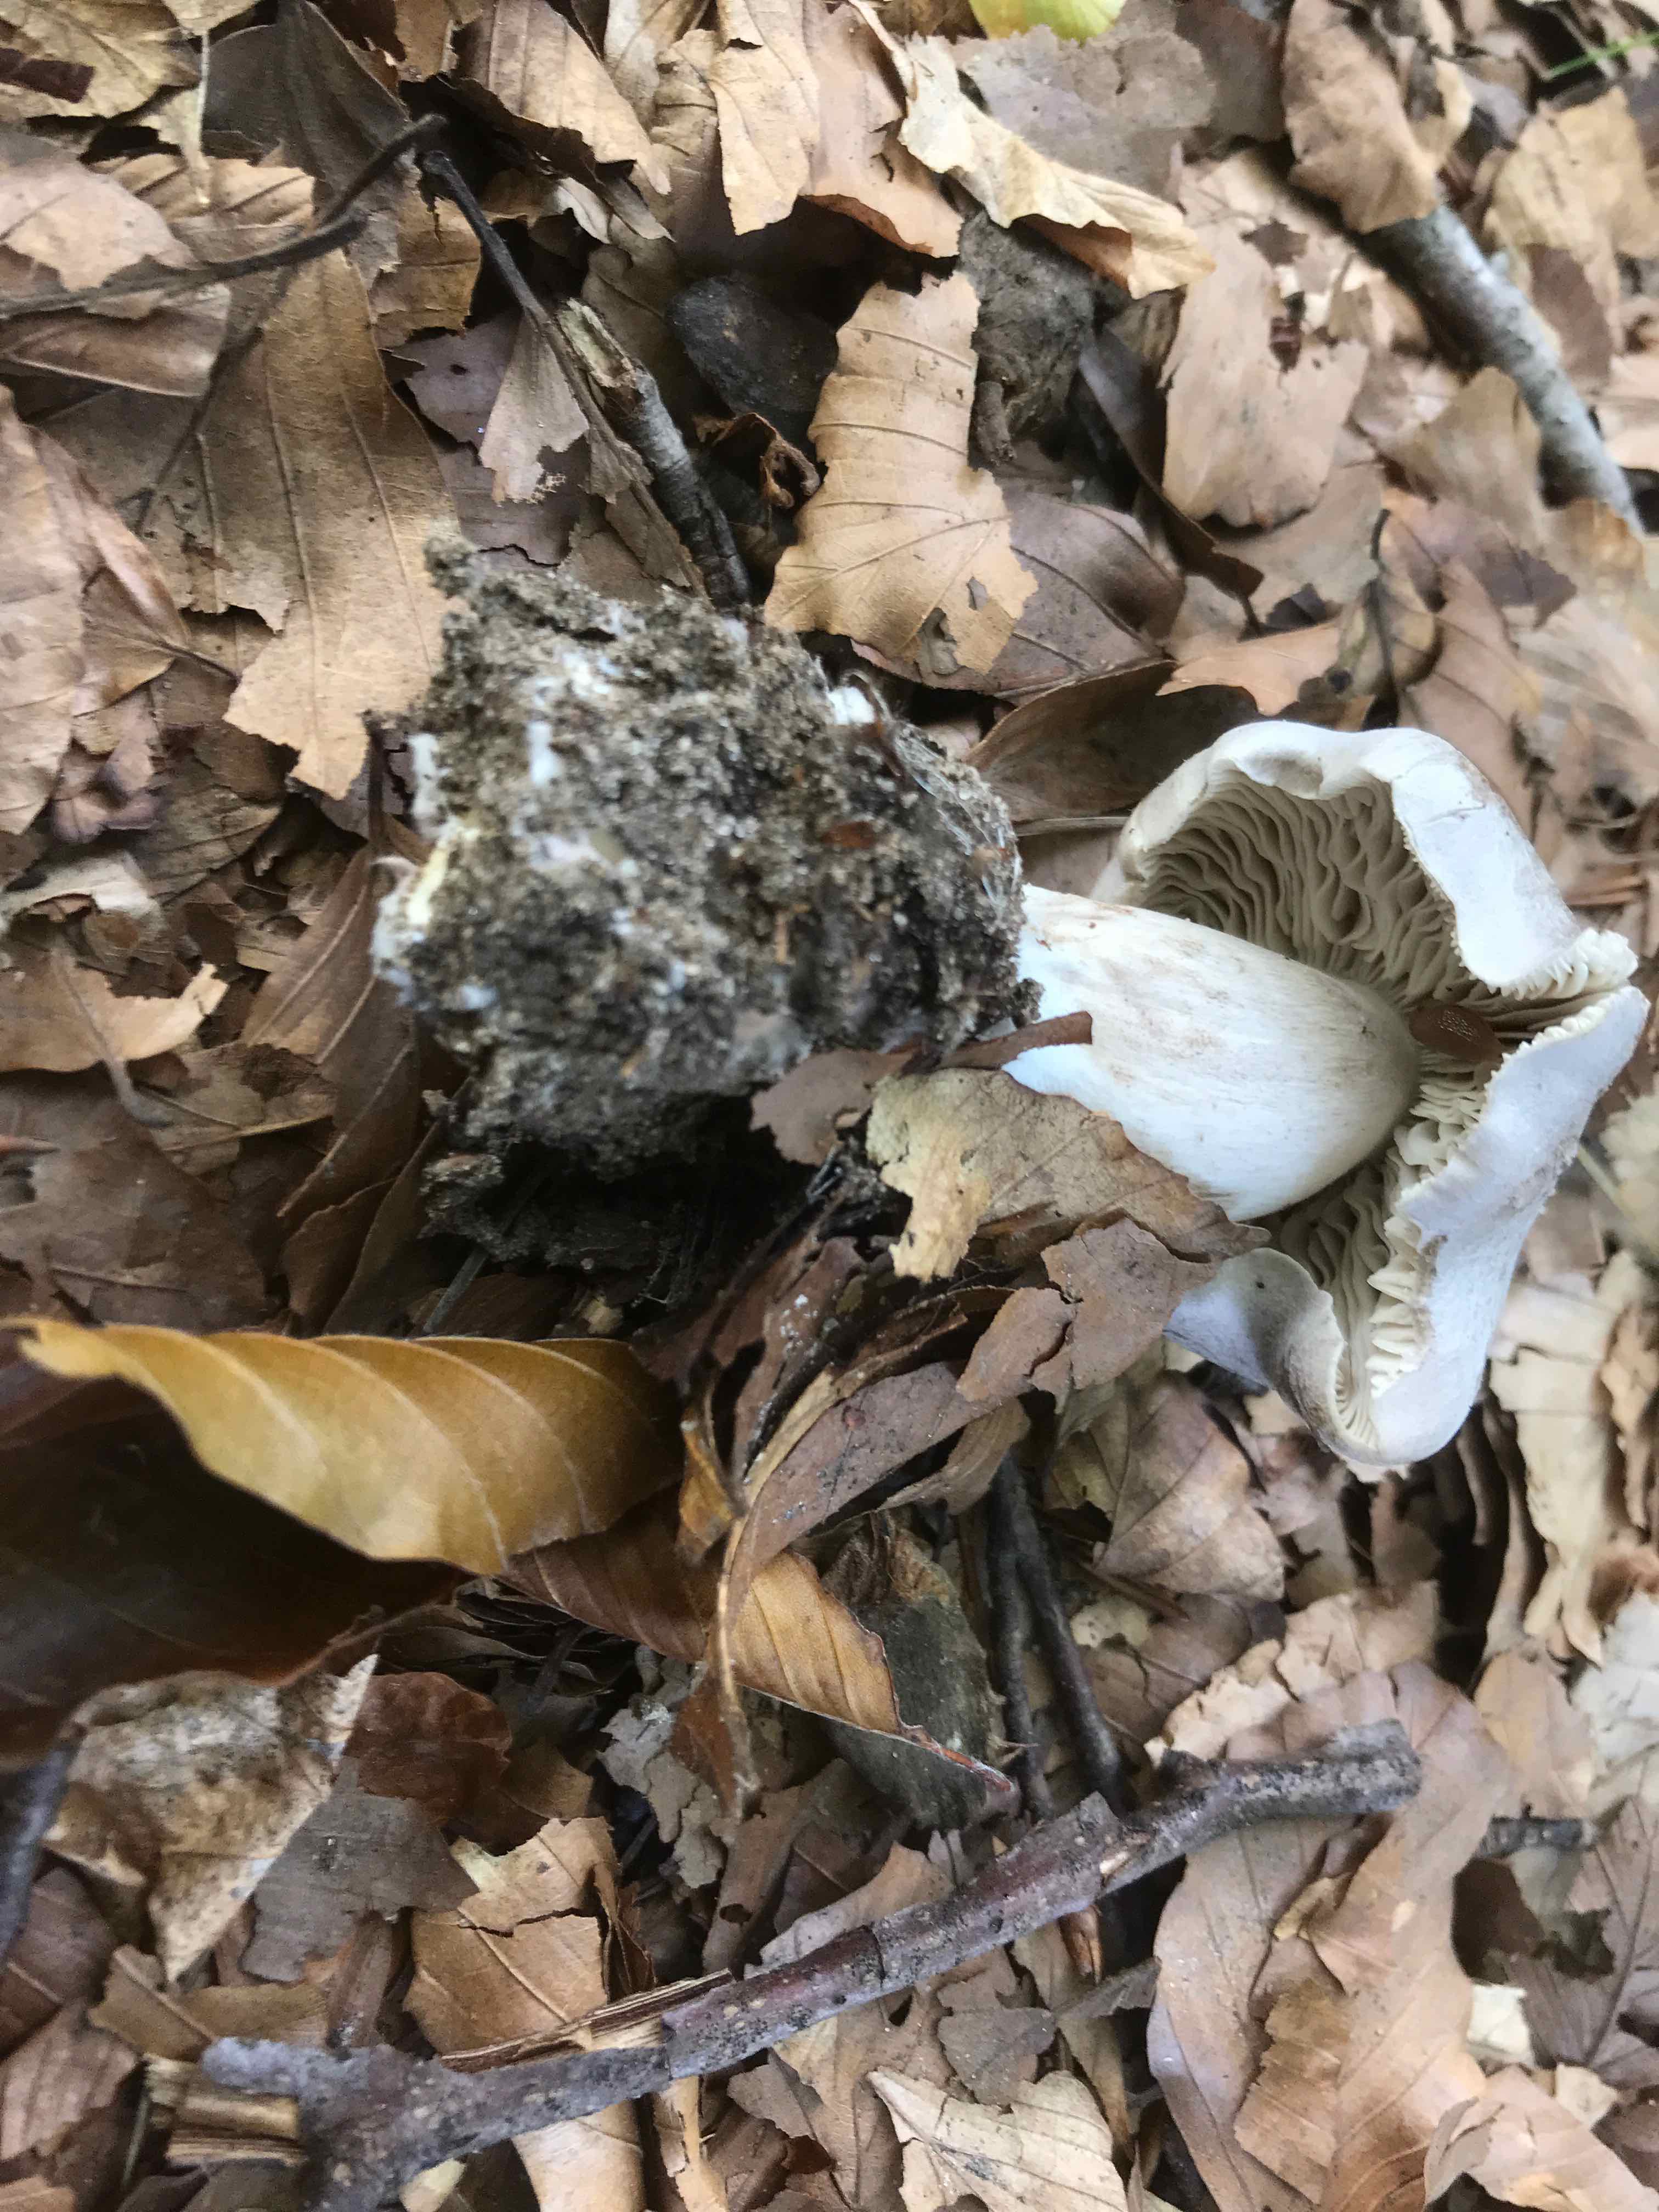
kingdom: Fungi
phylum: Basidiomycota
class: Agaricomycetes
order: Agaricales
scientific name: Agaricales
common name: champignonordenen
